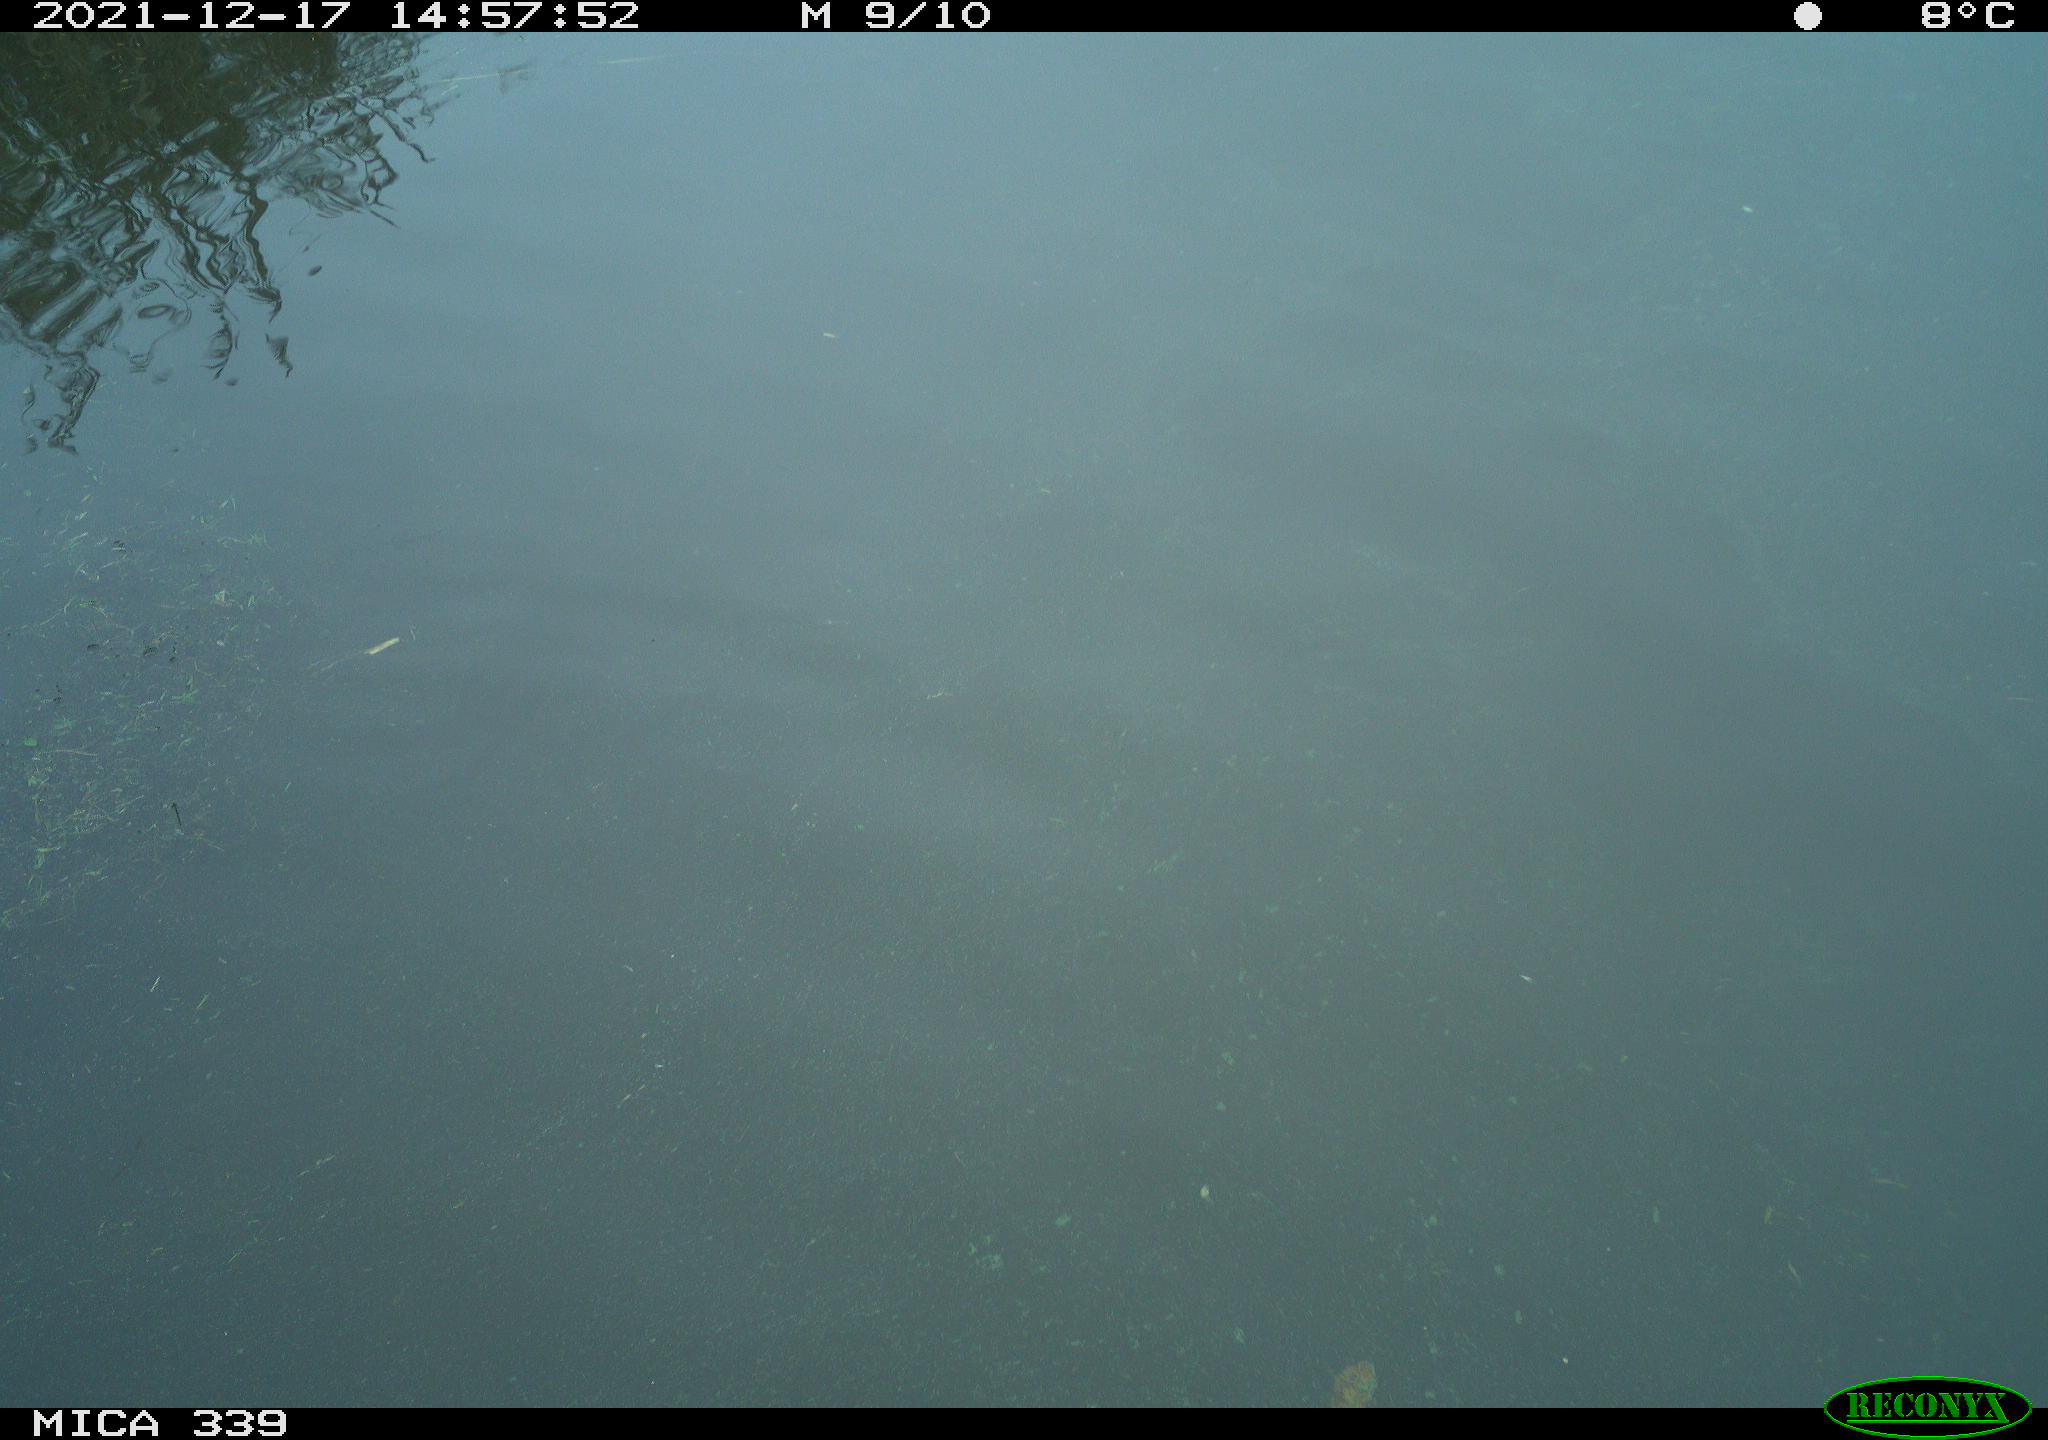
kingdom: Animalia
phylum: Chordata
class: Aves
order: Anseriformes
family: Anatidae
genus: Anas
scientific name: Anas platyrhynchos
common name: Mallard
